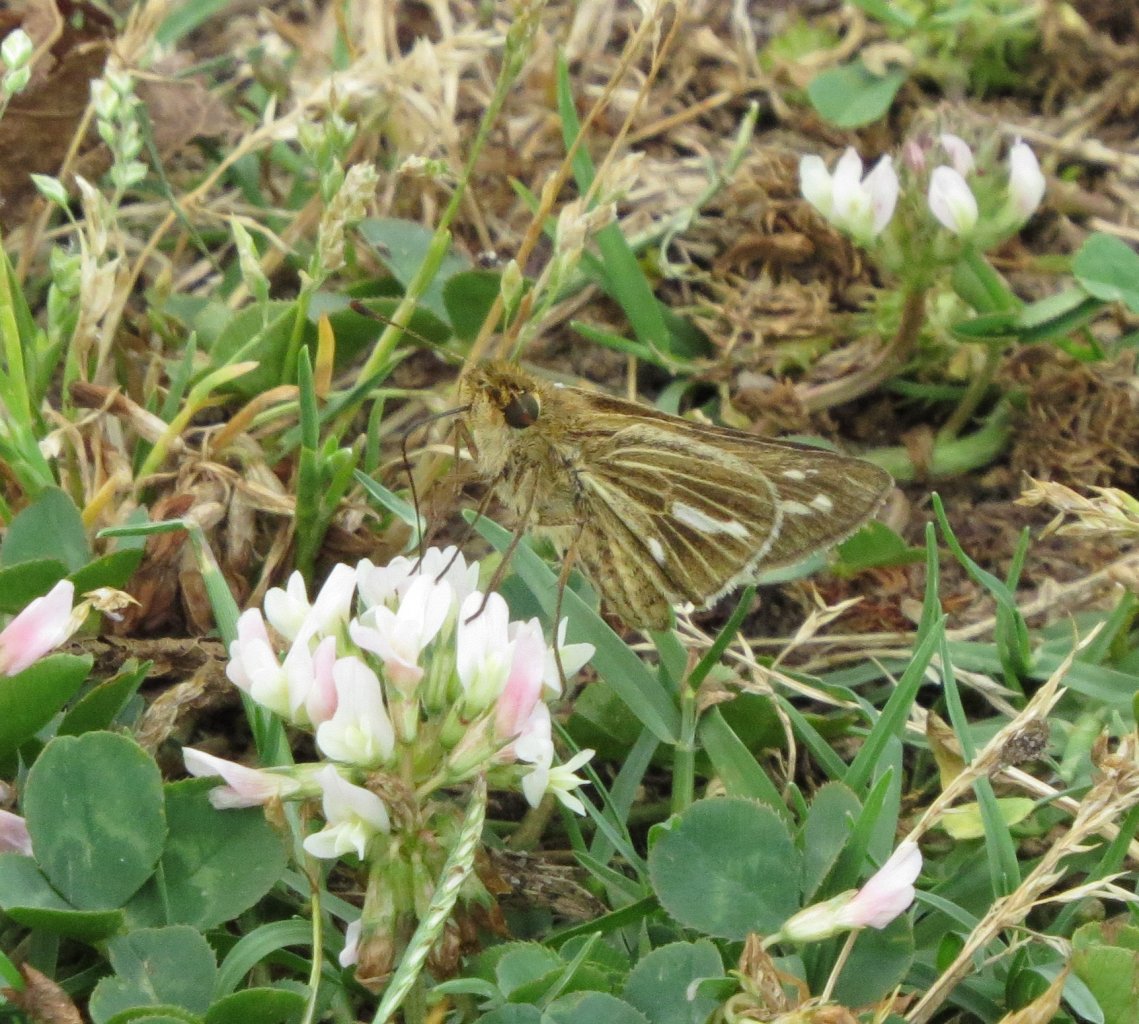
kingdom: Animalia
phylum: Arthropoda
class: Insecta
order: Lepidoptera
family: Hesperiidae
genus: Panoquina
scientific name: Panoquina panoquin
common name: Salt Marsh Skipper
